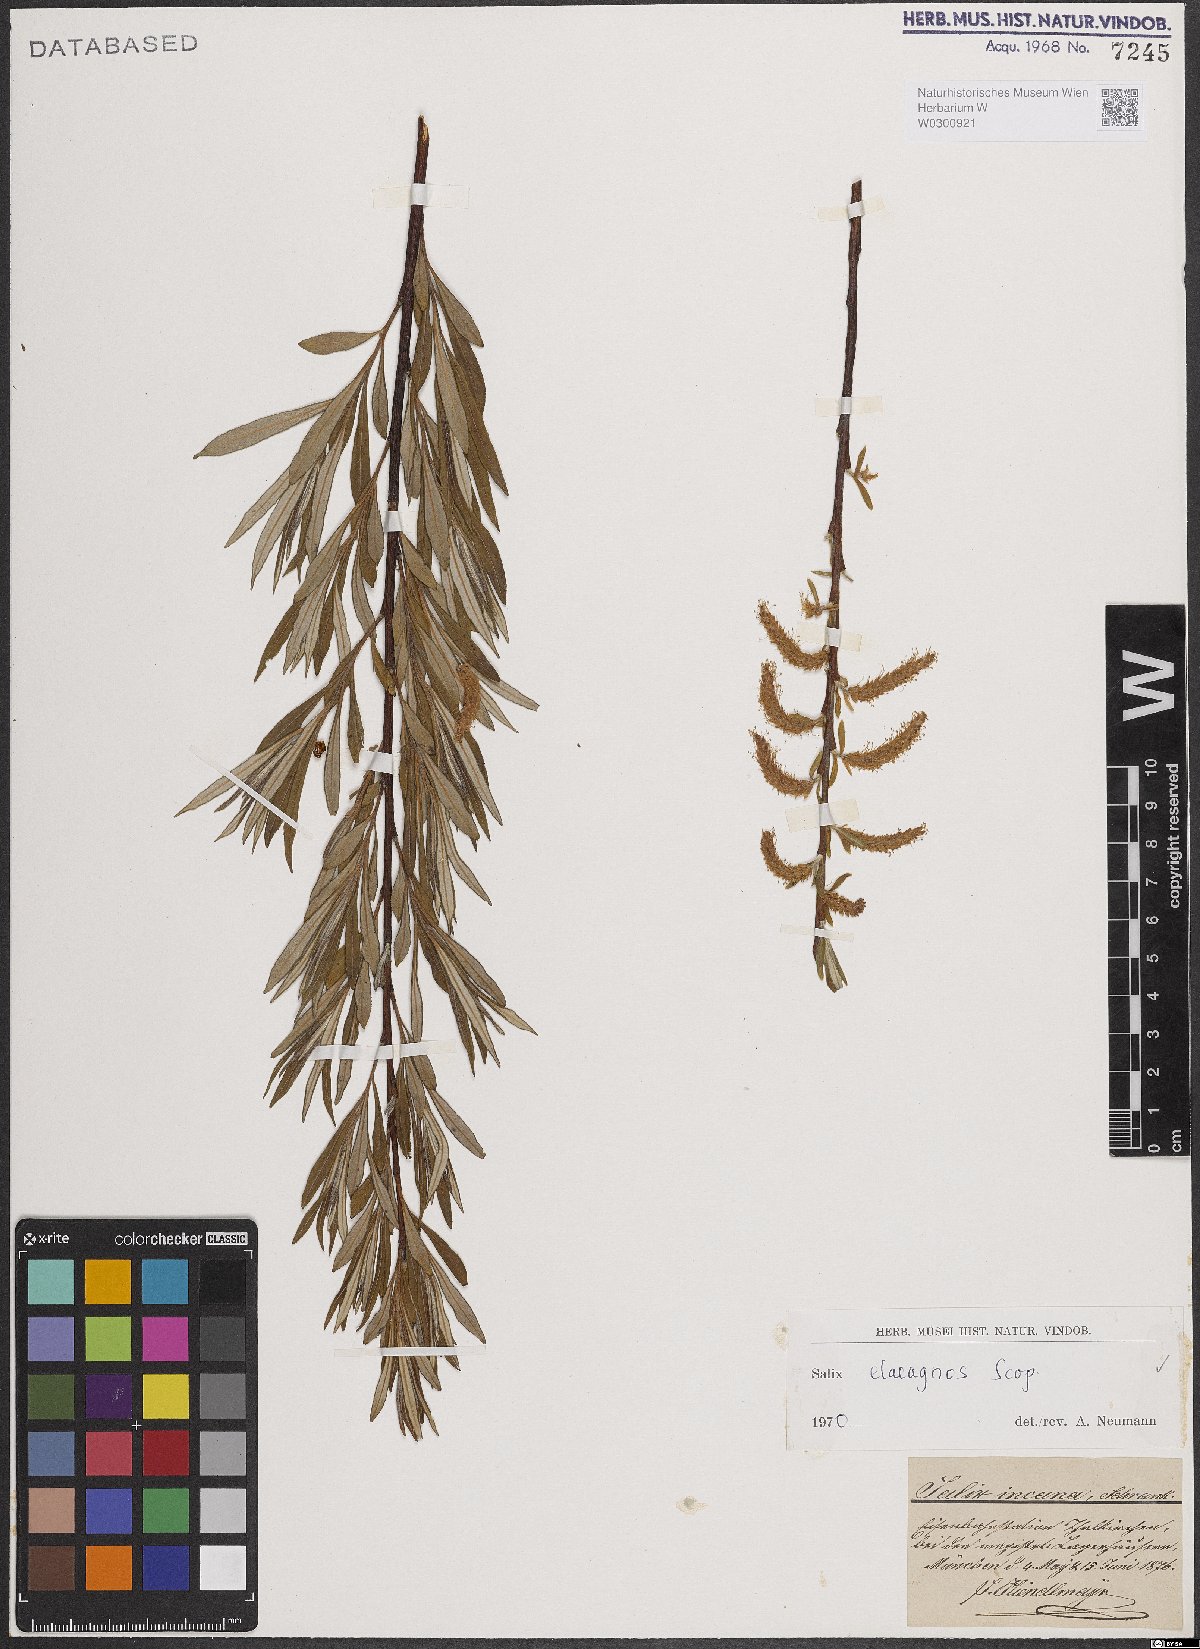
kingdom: Plantae
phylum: Tracheophyta
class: Magnoliopsida
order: Malpighiales
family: Salicaceae
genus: Salix
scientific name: Salix eleagnos
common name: Elaeagnus willow
